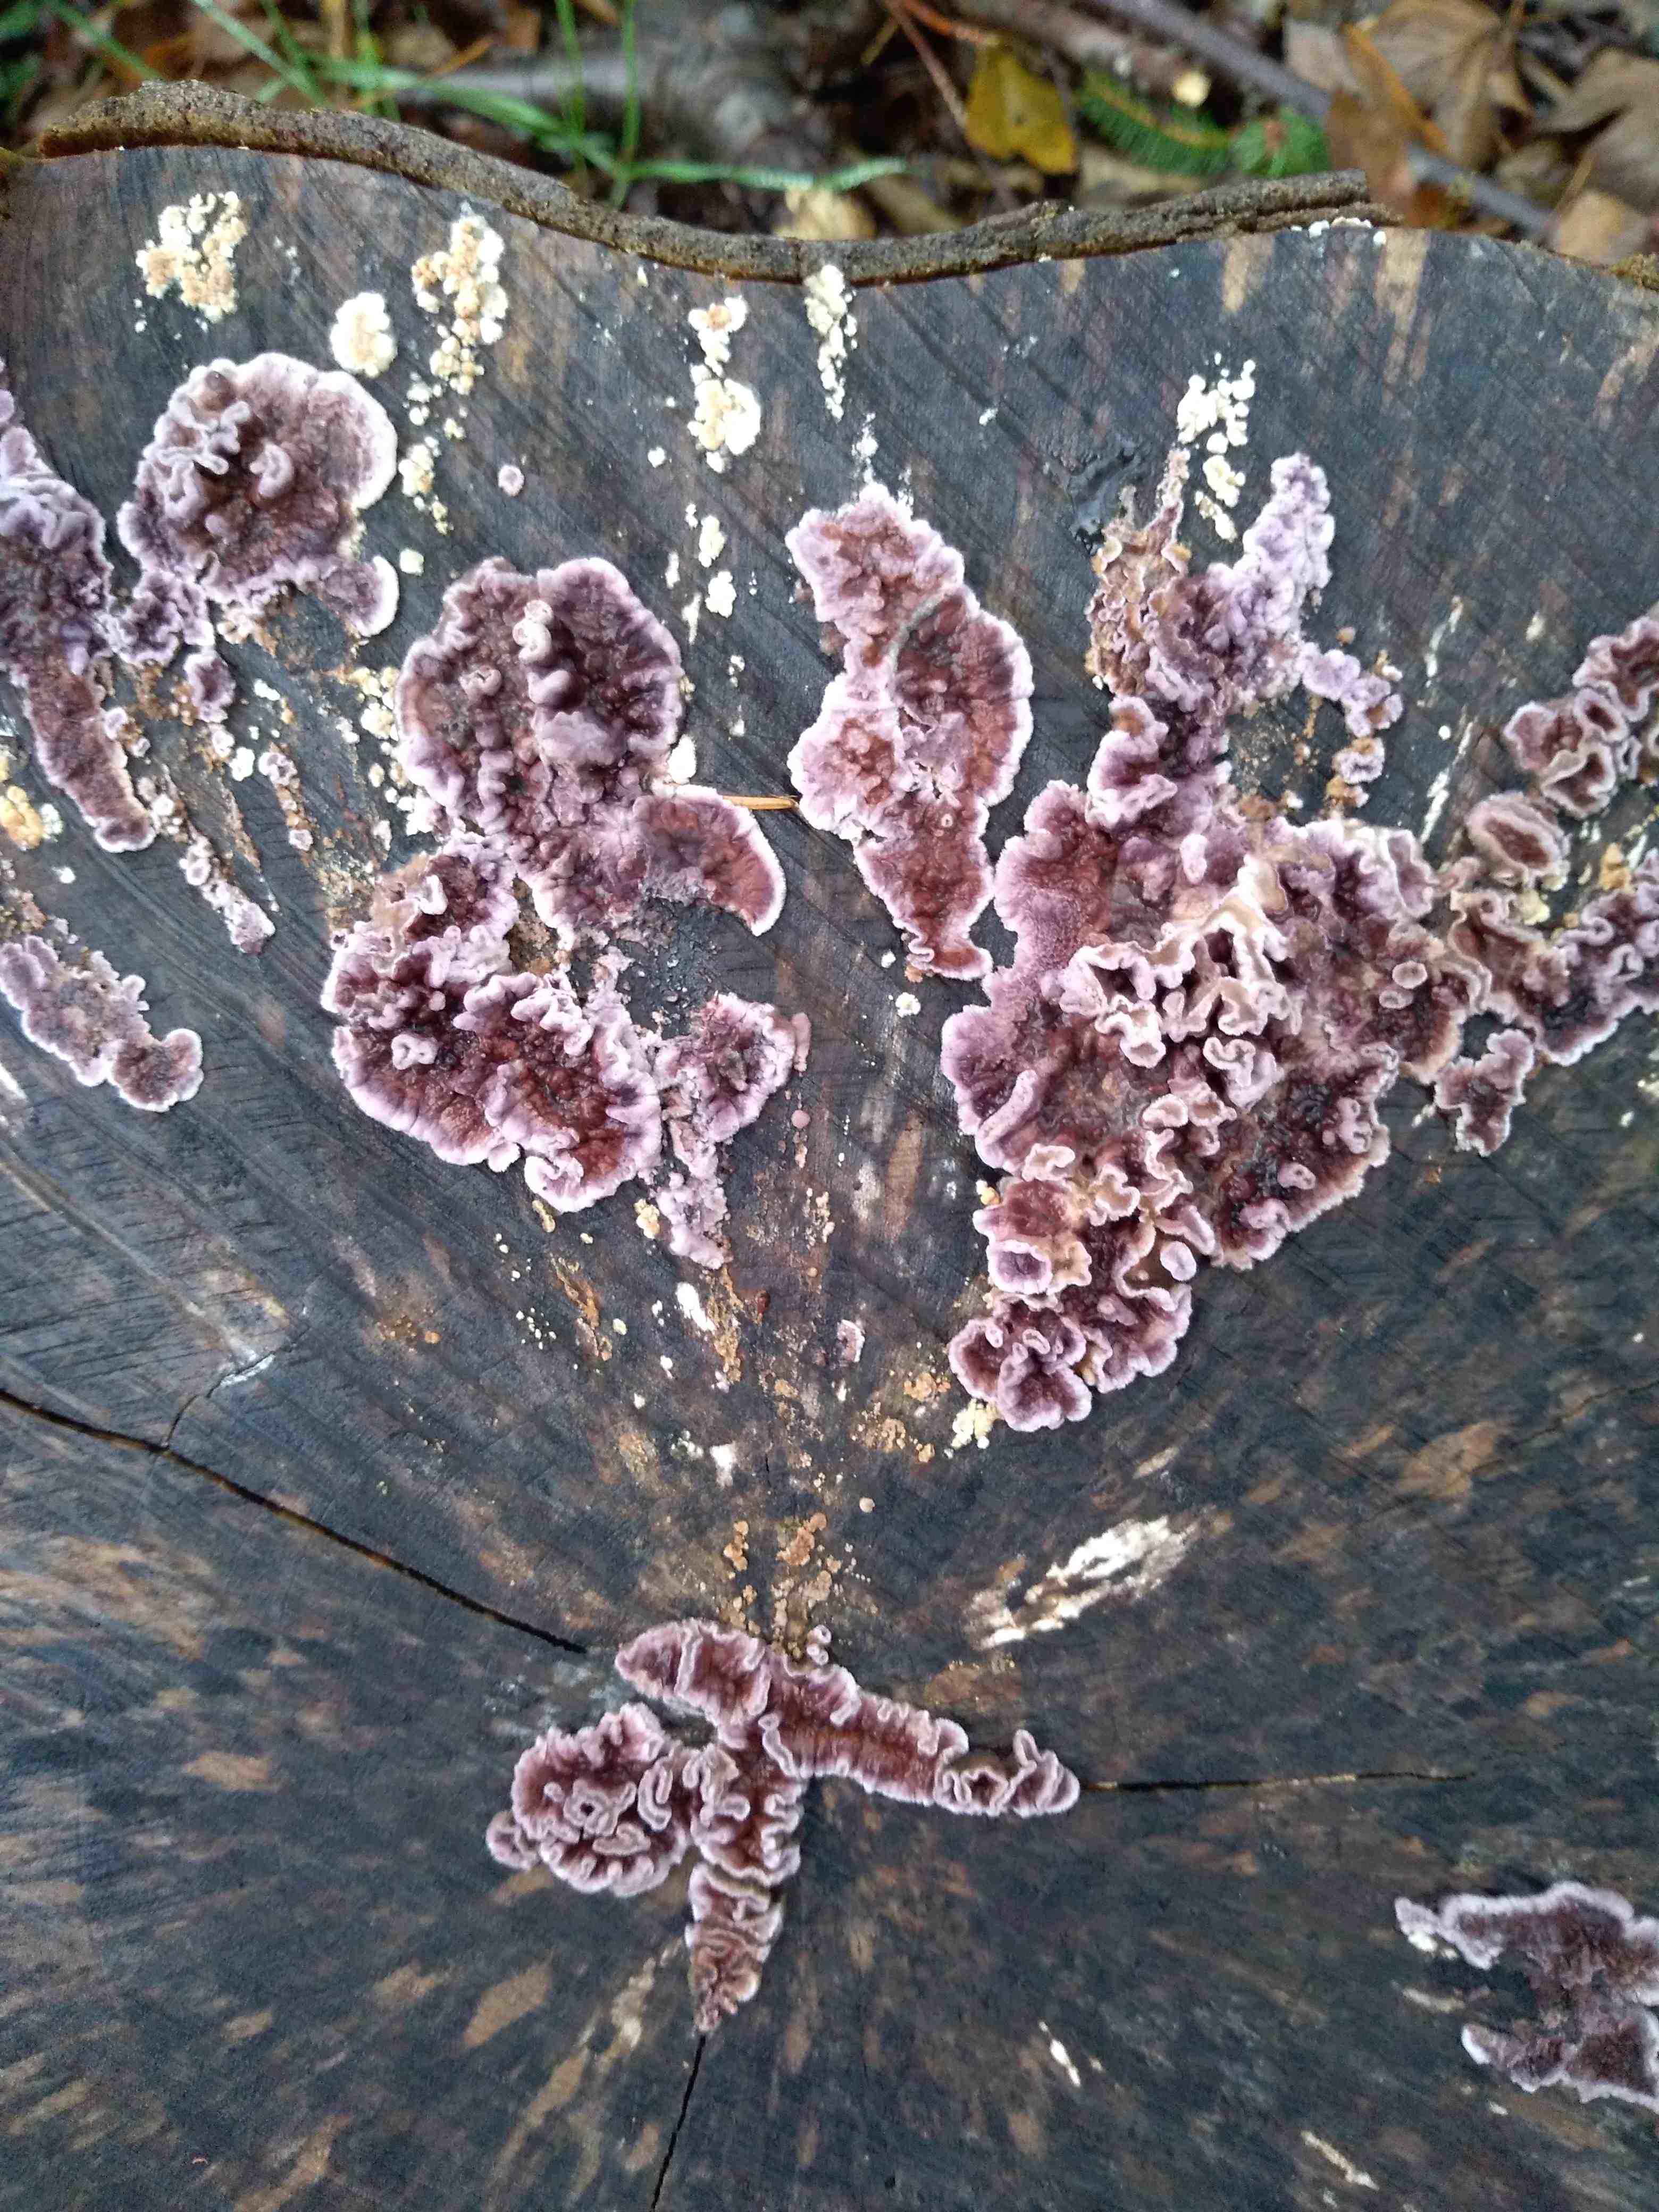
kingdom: Fungi
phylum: Basidiomycota
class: Agaricomycetes
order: Agaricales
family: Cyphellaceae
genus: Chondrostereum
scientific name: Chondrostereum purpureum
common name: purpurlædersvamp
